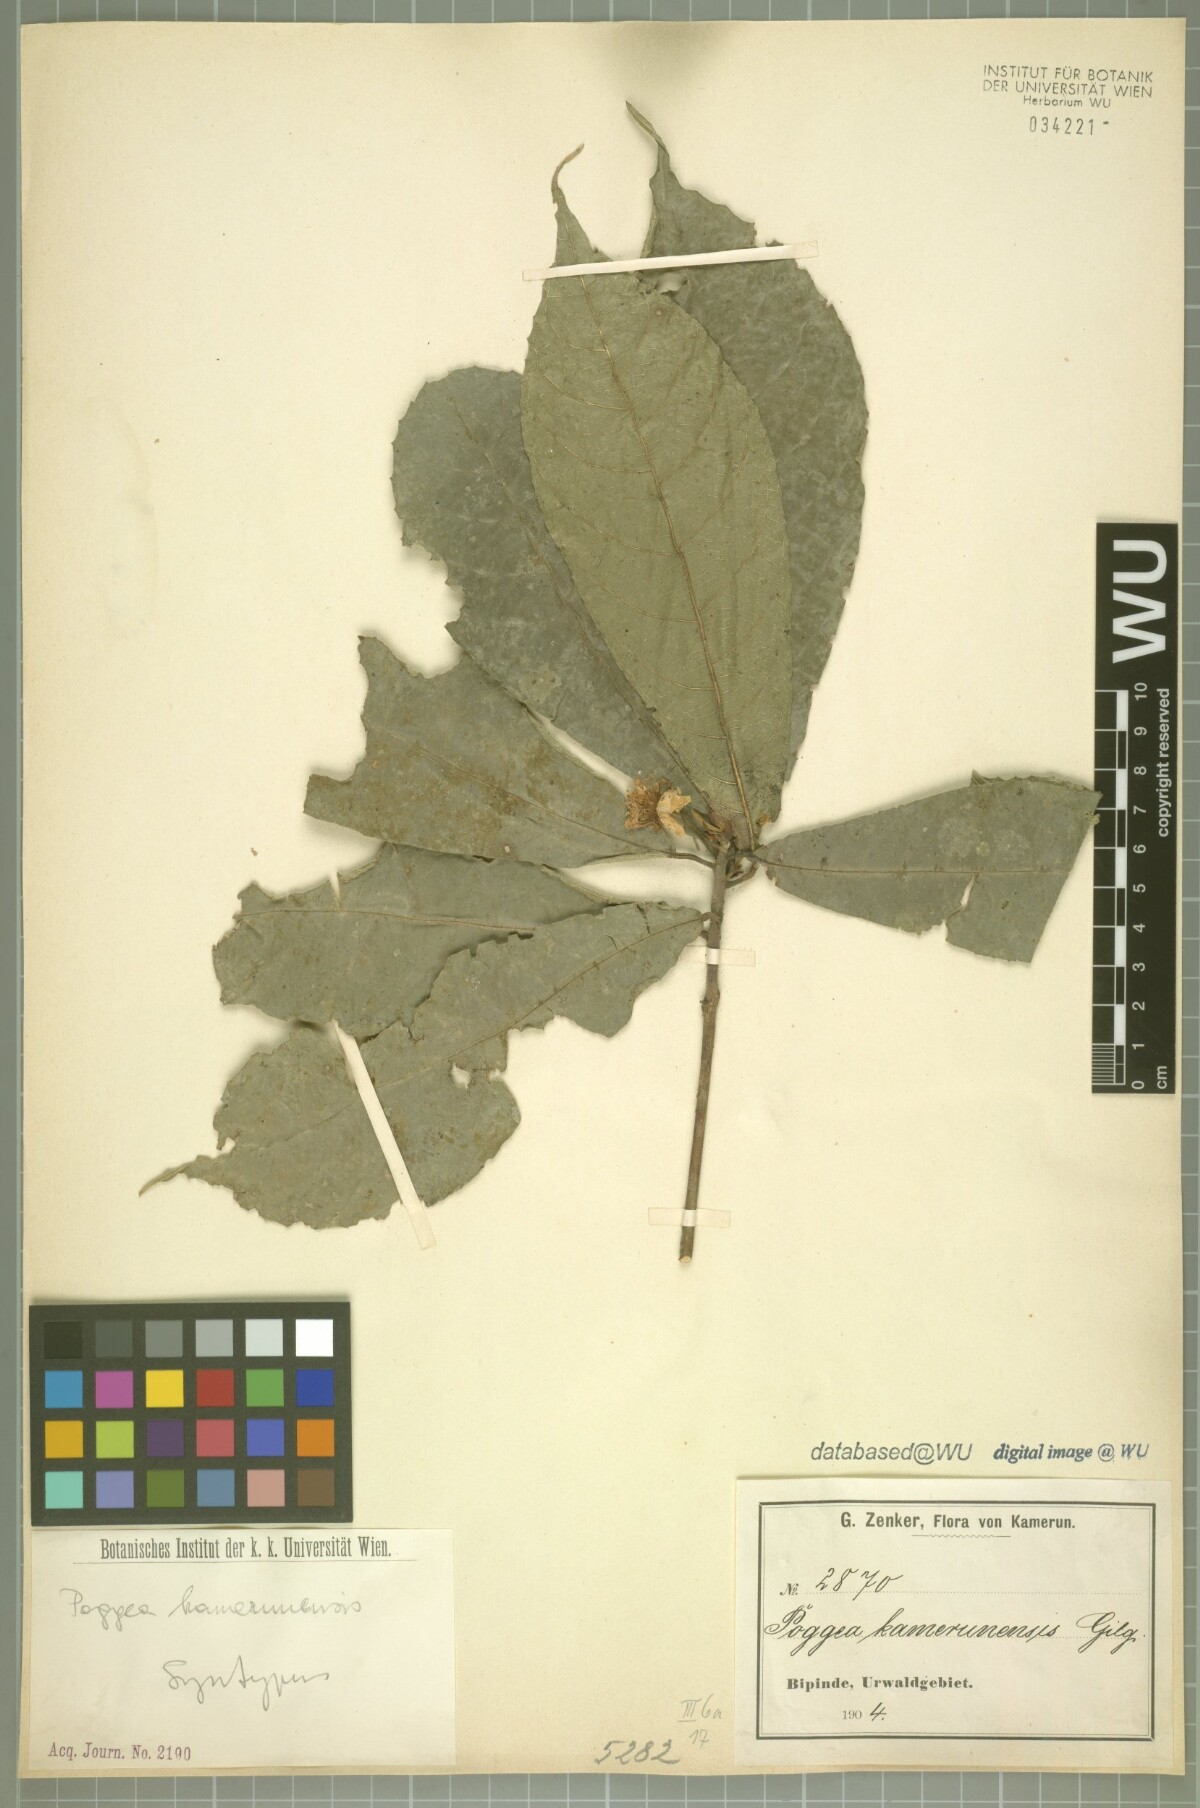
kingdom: Plantae
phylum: Tracheophyta
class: Magnoliopsida
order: Malpighiales
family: Achariaceae
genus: Poggea
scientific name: Poggea alata
